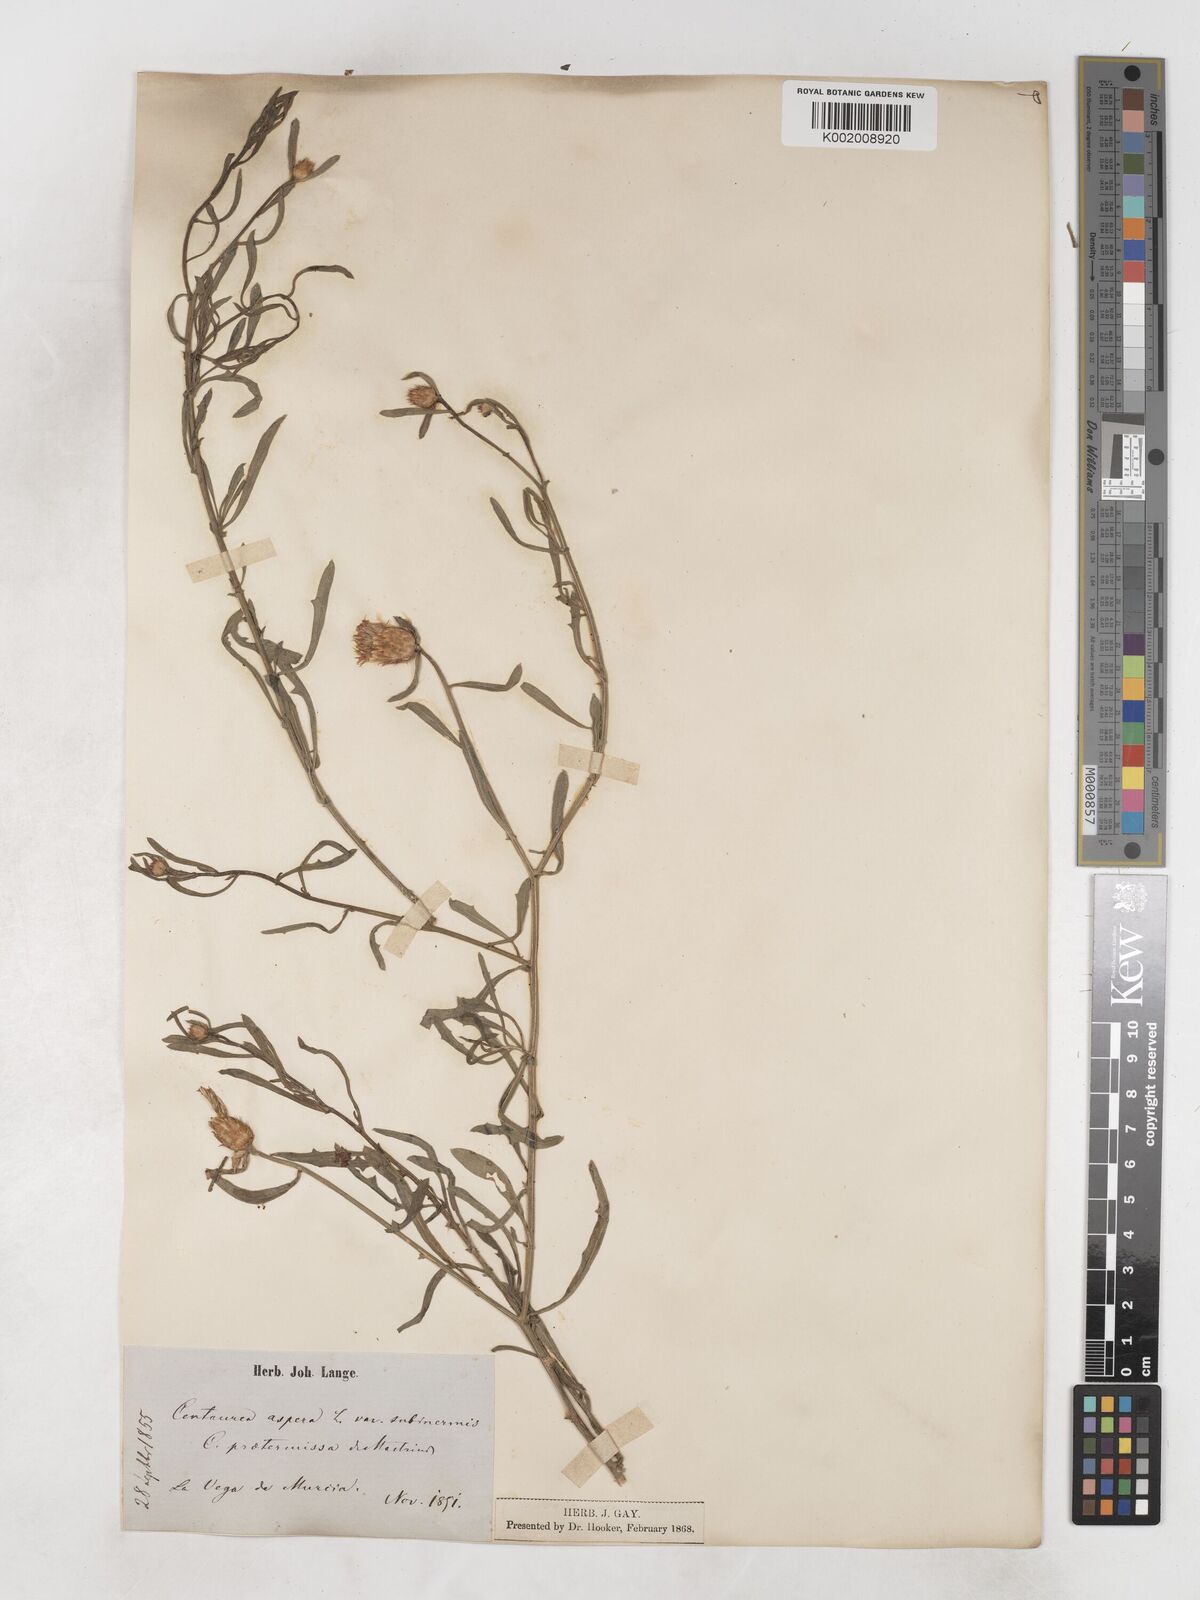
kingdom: Plantae
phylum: Tracheophyta
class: Magnoliopsida
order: Asterales
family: Asteraceae
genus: Centaurea
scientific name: Centaurea aspera
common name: Rough star-thistle
